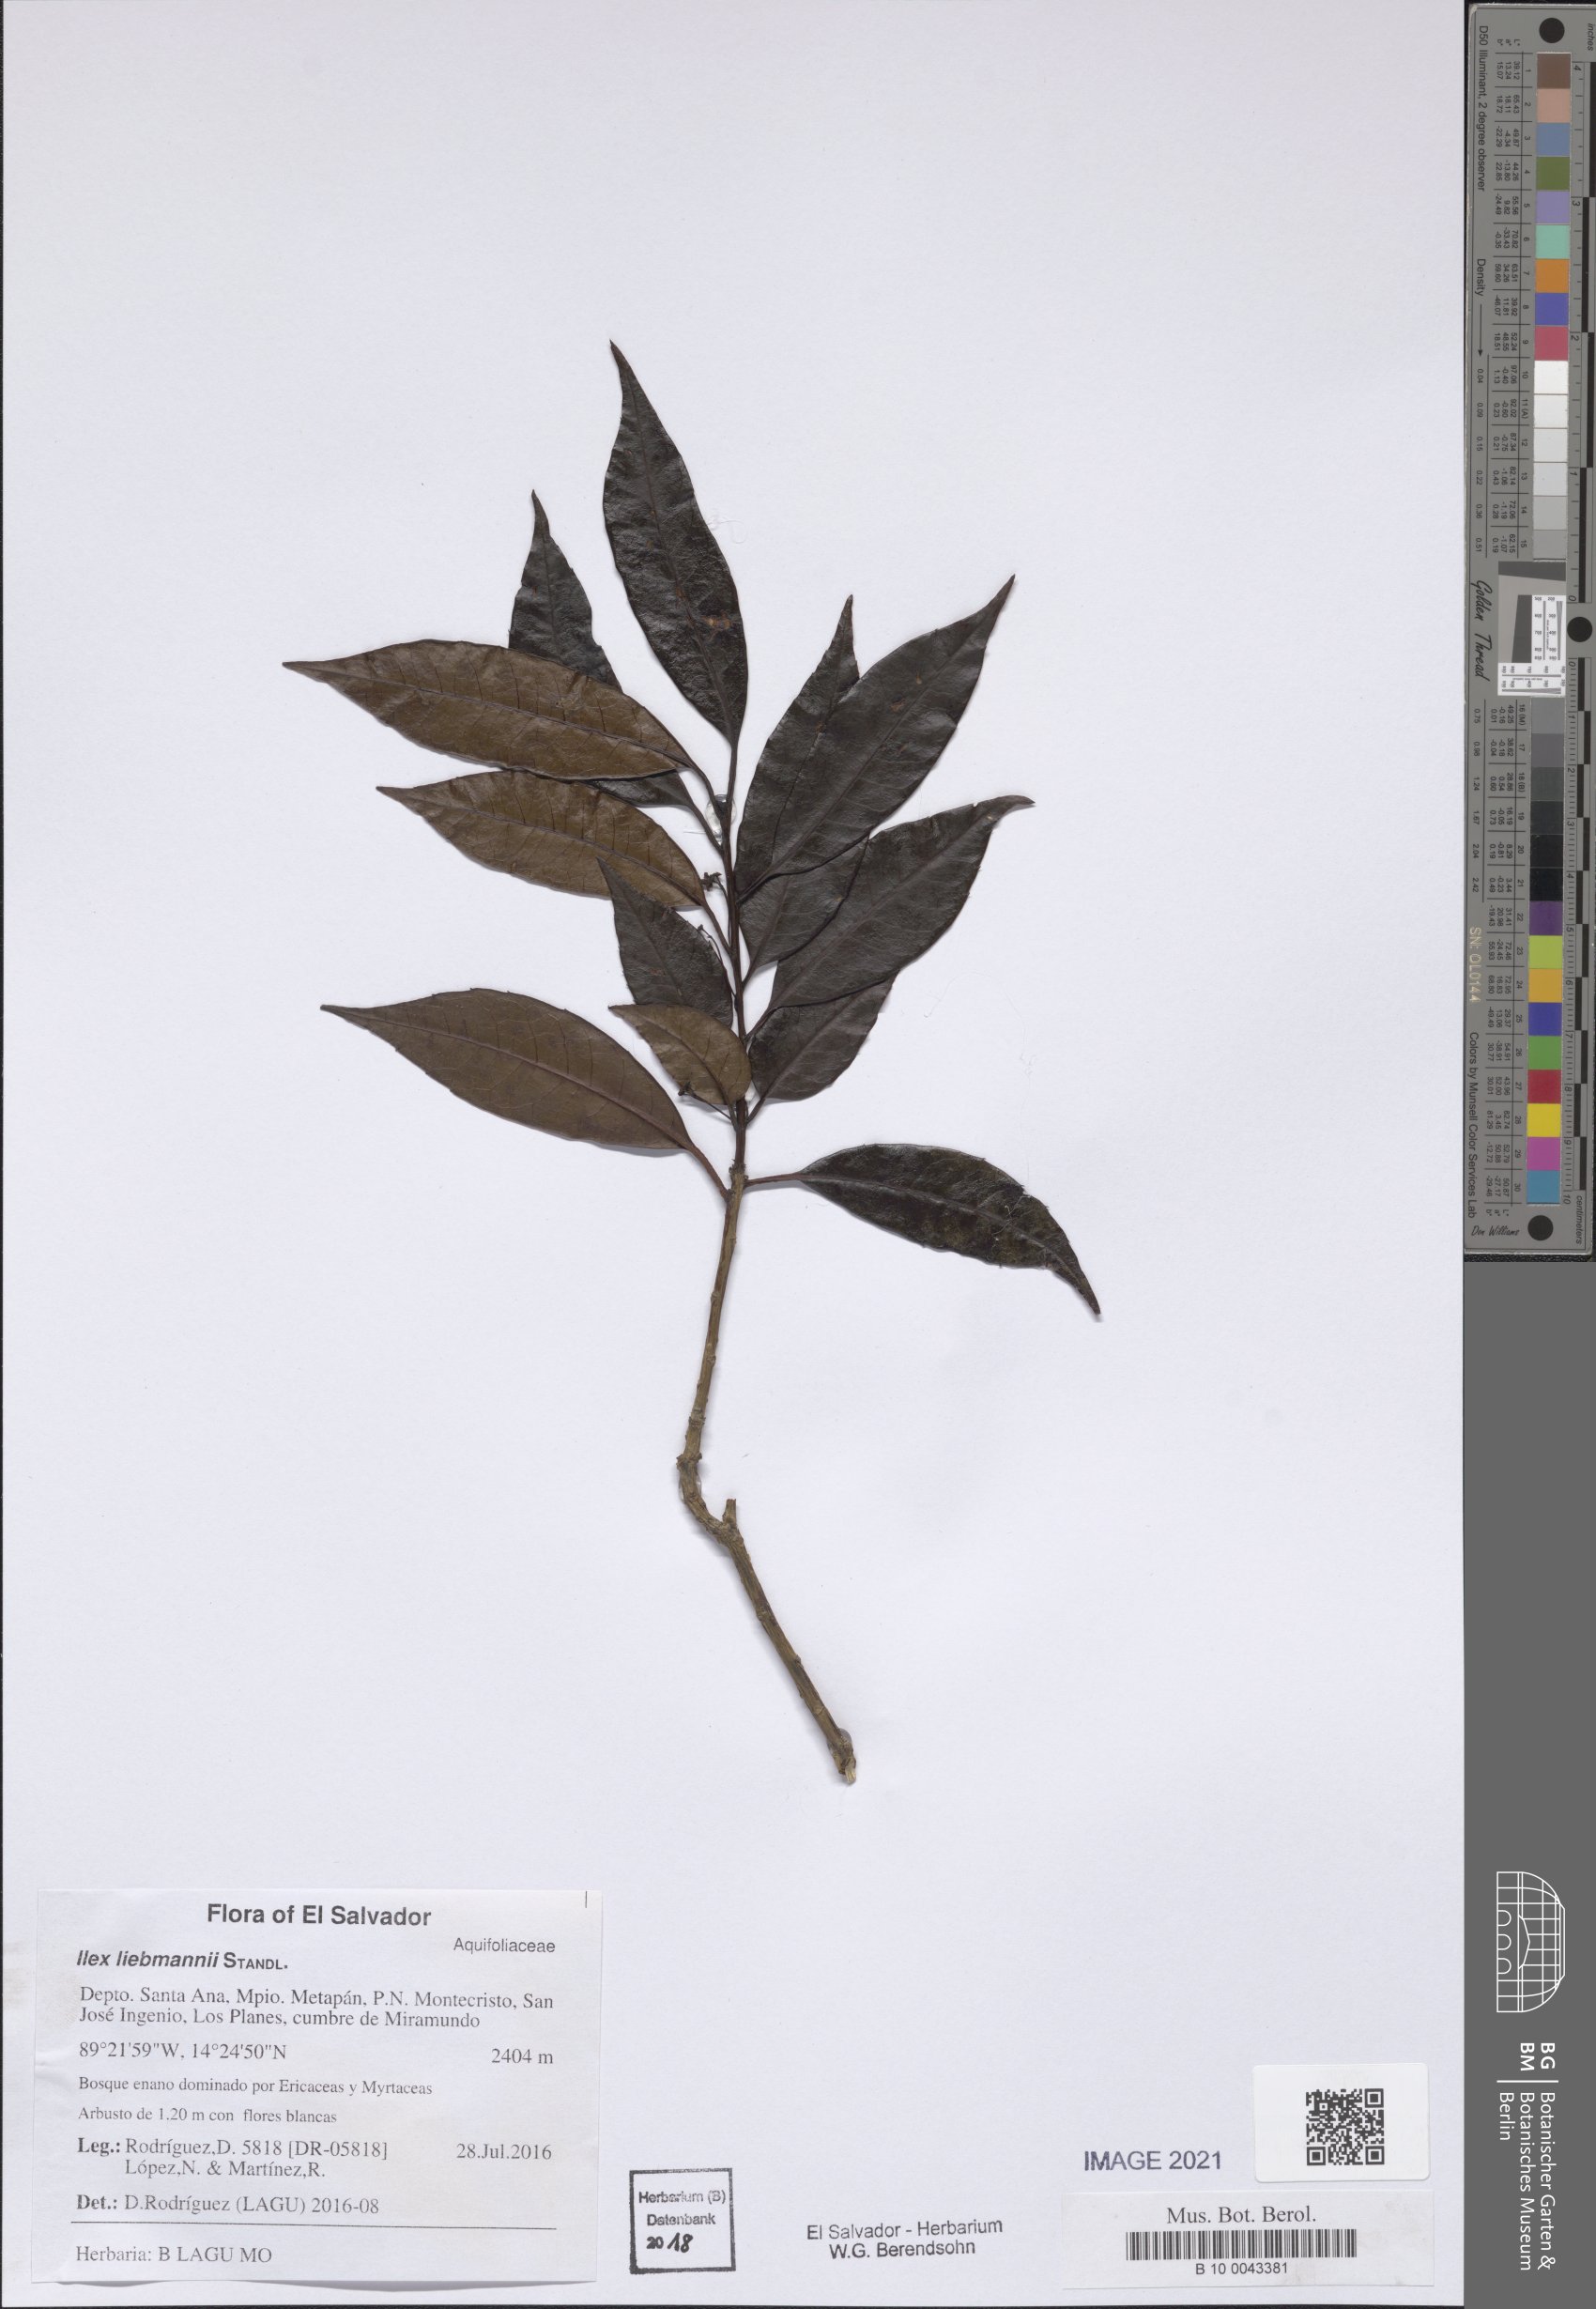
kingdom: Plantae
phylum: Tracheophyta
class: Magnoliopsida
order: Aquifoliales
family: Aquifoliaceae
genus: Ilex
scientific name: Ilex liebmannii
